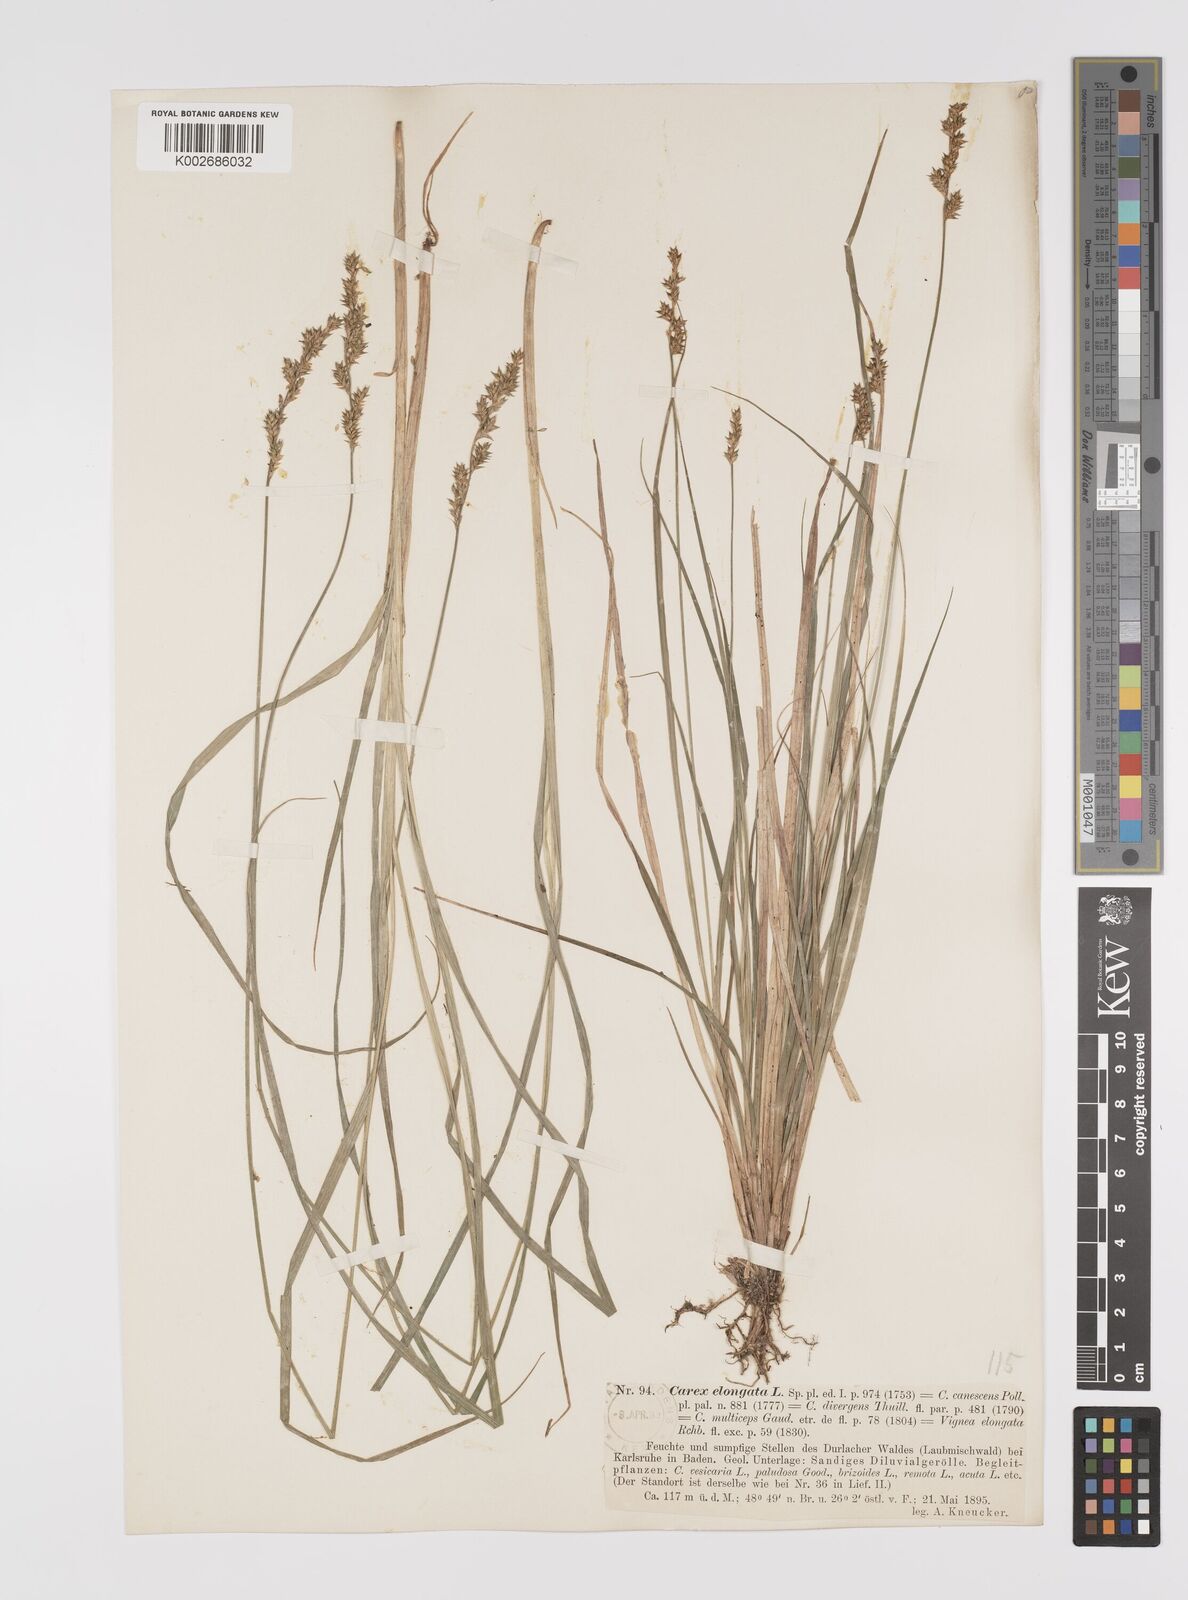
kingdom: Plantae
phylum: Tracheophyta
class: Liliopsida
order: Poales
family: Cyperaceae
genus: Carex
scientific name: Carex elongata
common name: Elongated sedge
